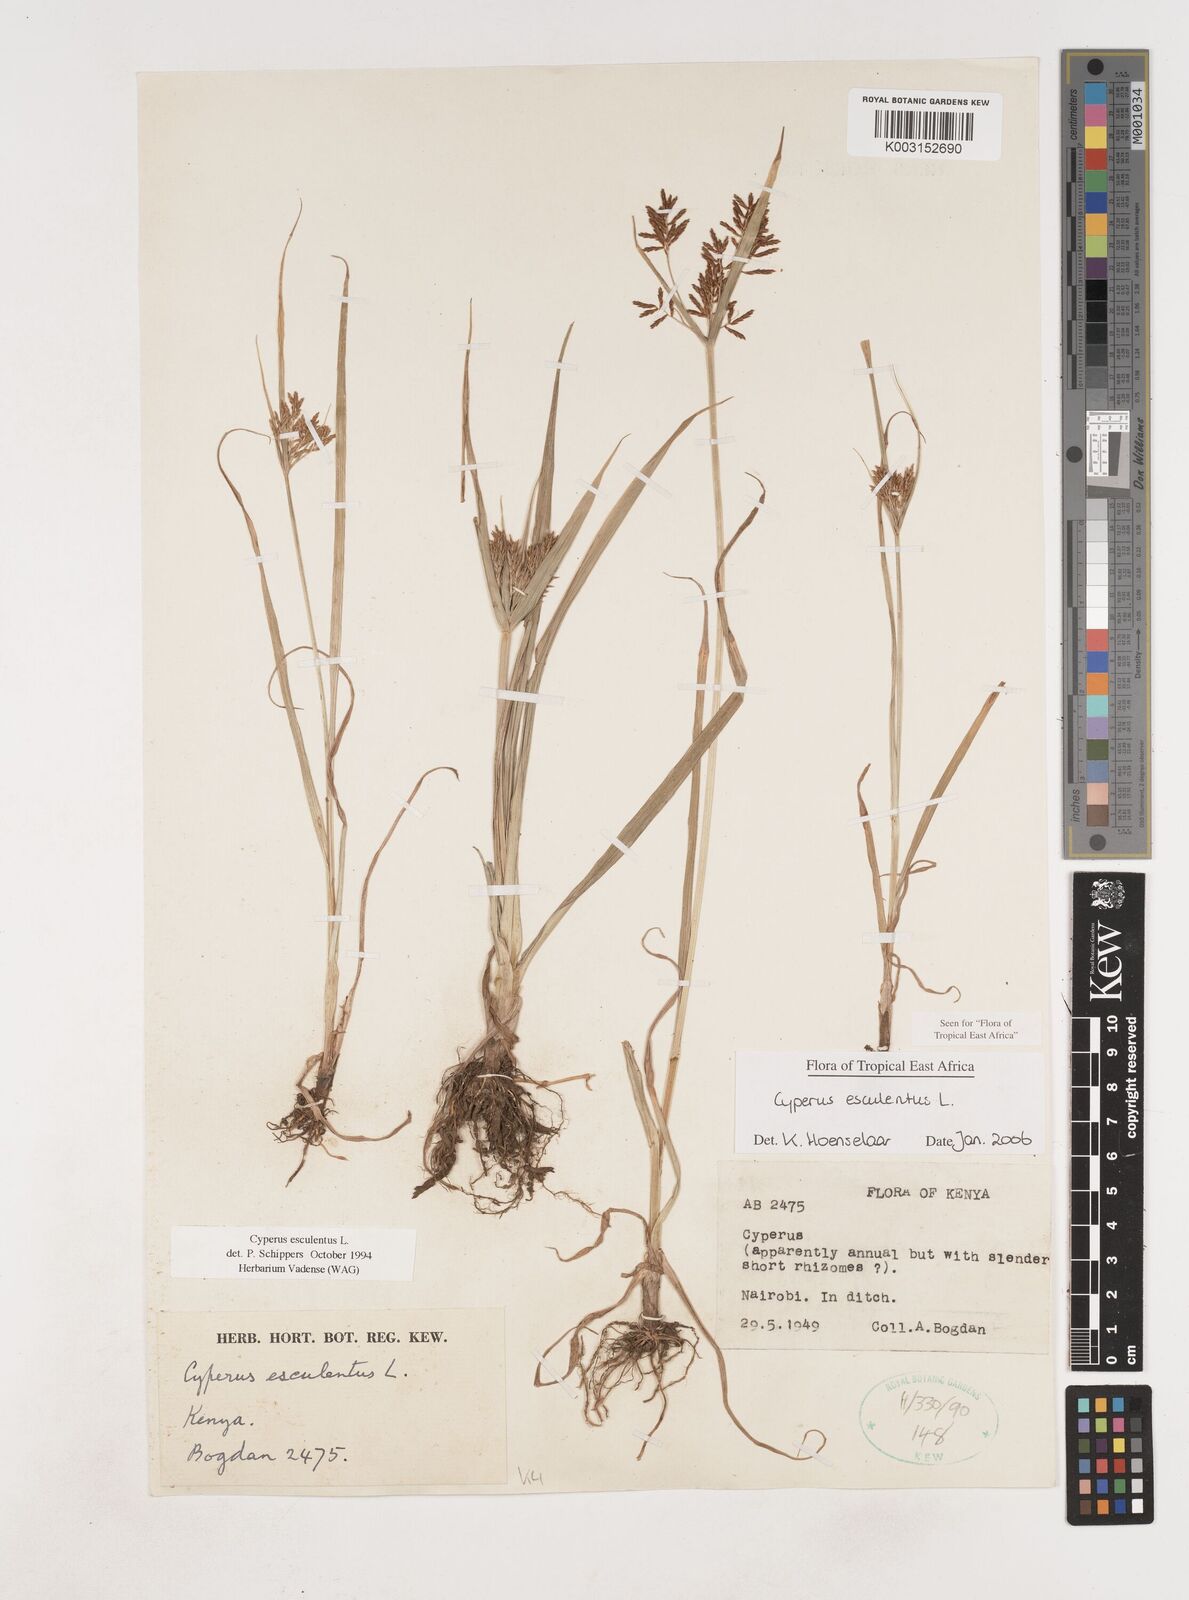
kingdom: Plantae
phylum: Tracheophyta
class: Liliopsida
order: Poales
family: Cyperaceae
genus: Cyperus
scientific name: Cyperus esculentus
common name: Yellow nutsedge
